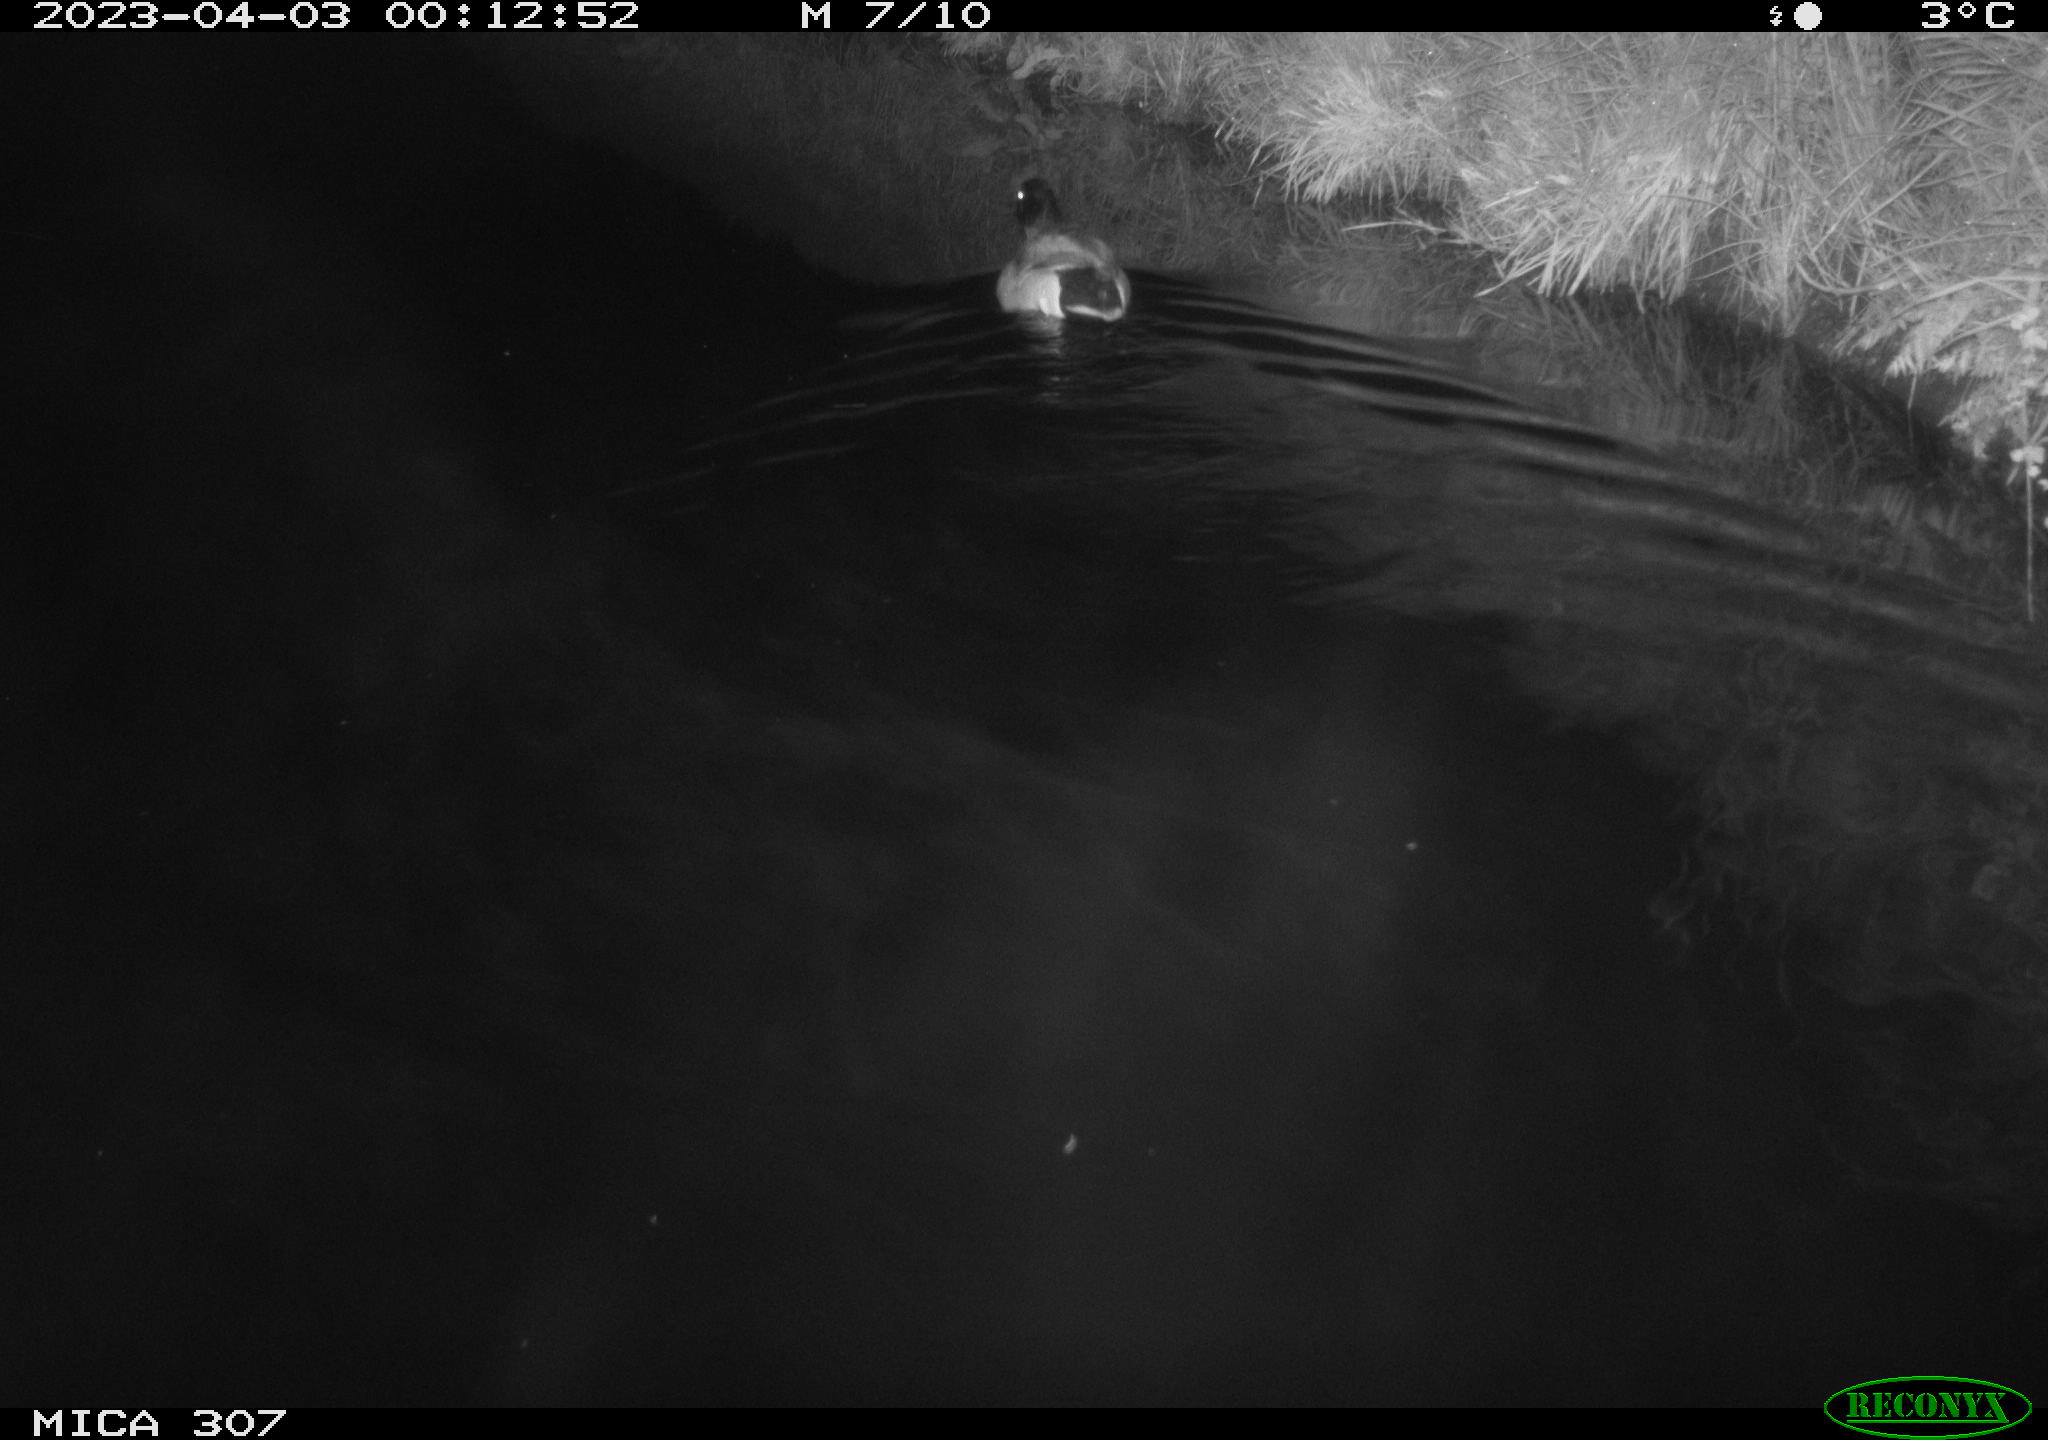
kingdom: Animalia
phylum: Chordata
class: Aves
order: Anseriformes
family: Anatidae
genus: Anas
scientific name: Anas
